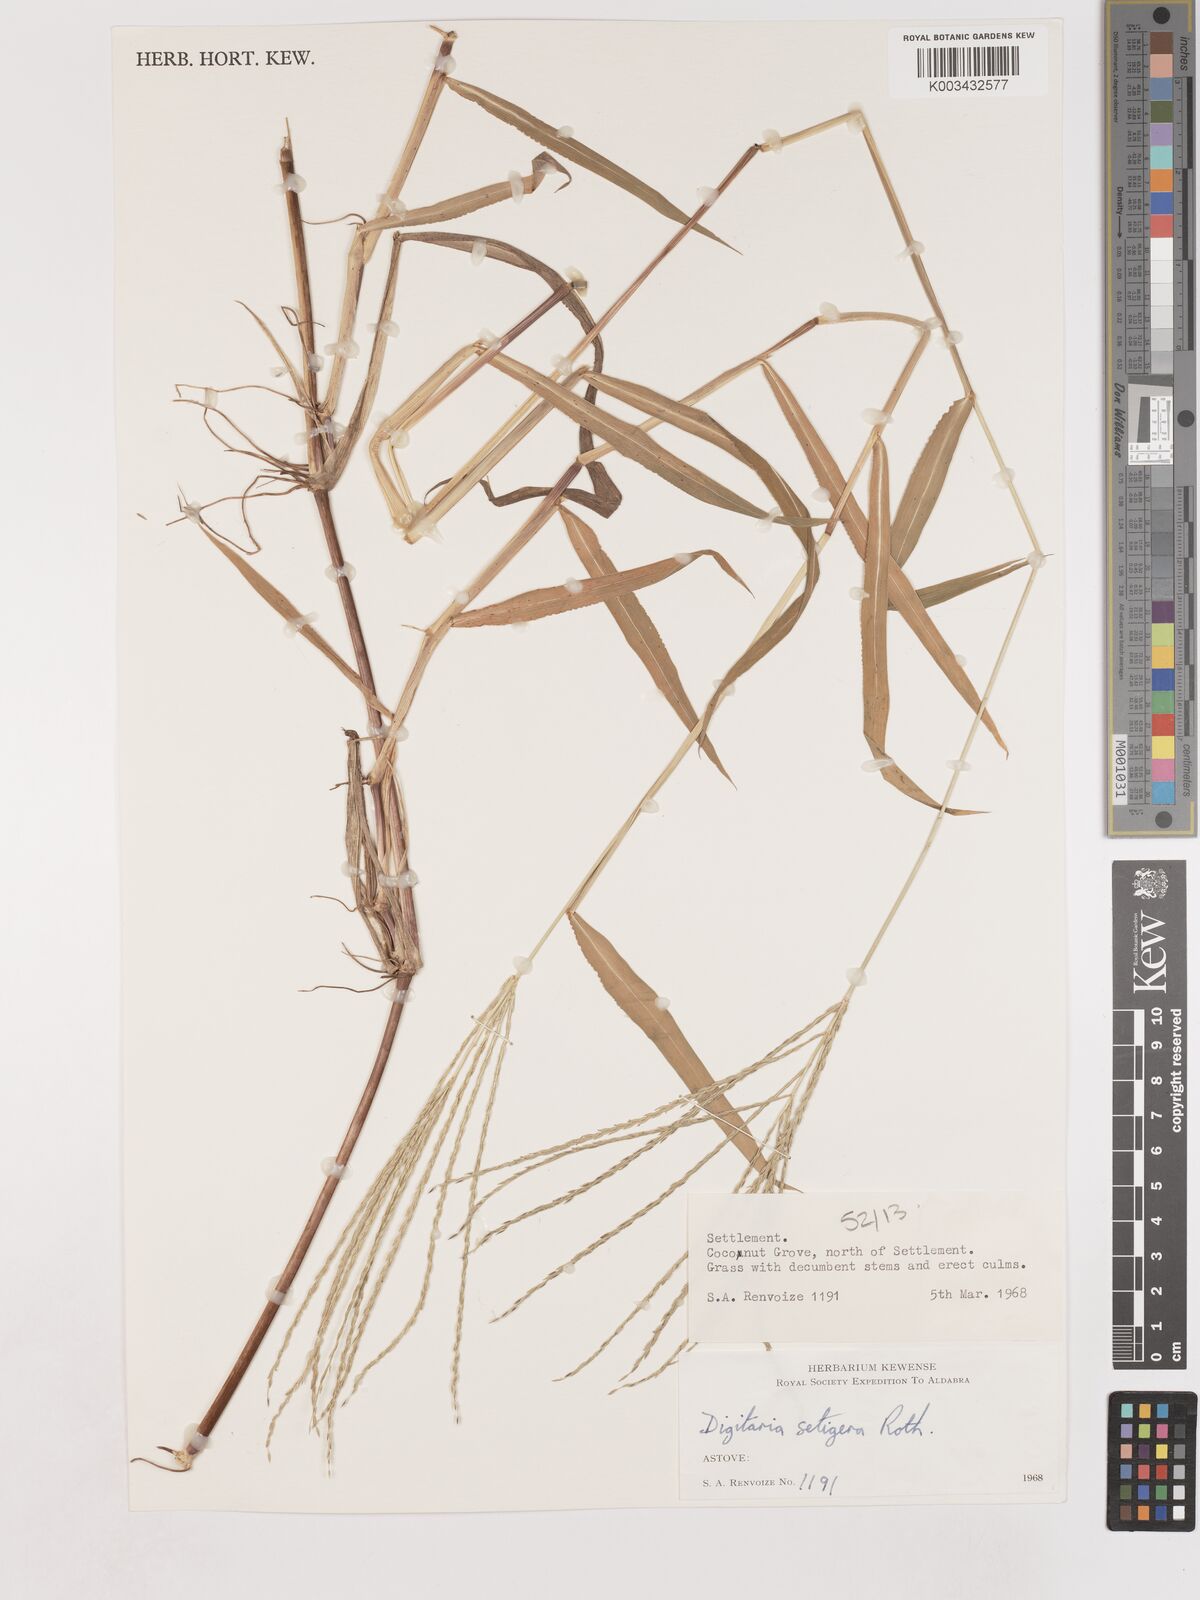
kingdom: Plantae
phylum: Tracheophyta
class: Liliopsida
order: Poales
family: Poaceae
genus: Digitaria
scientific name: Digitaria setigera
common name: East indian crabgrass
